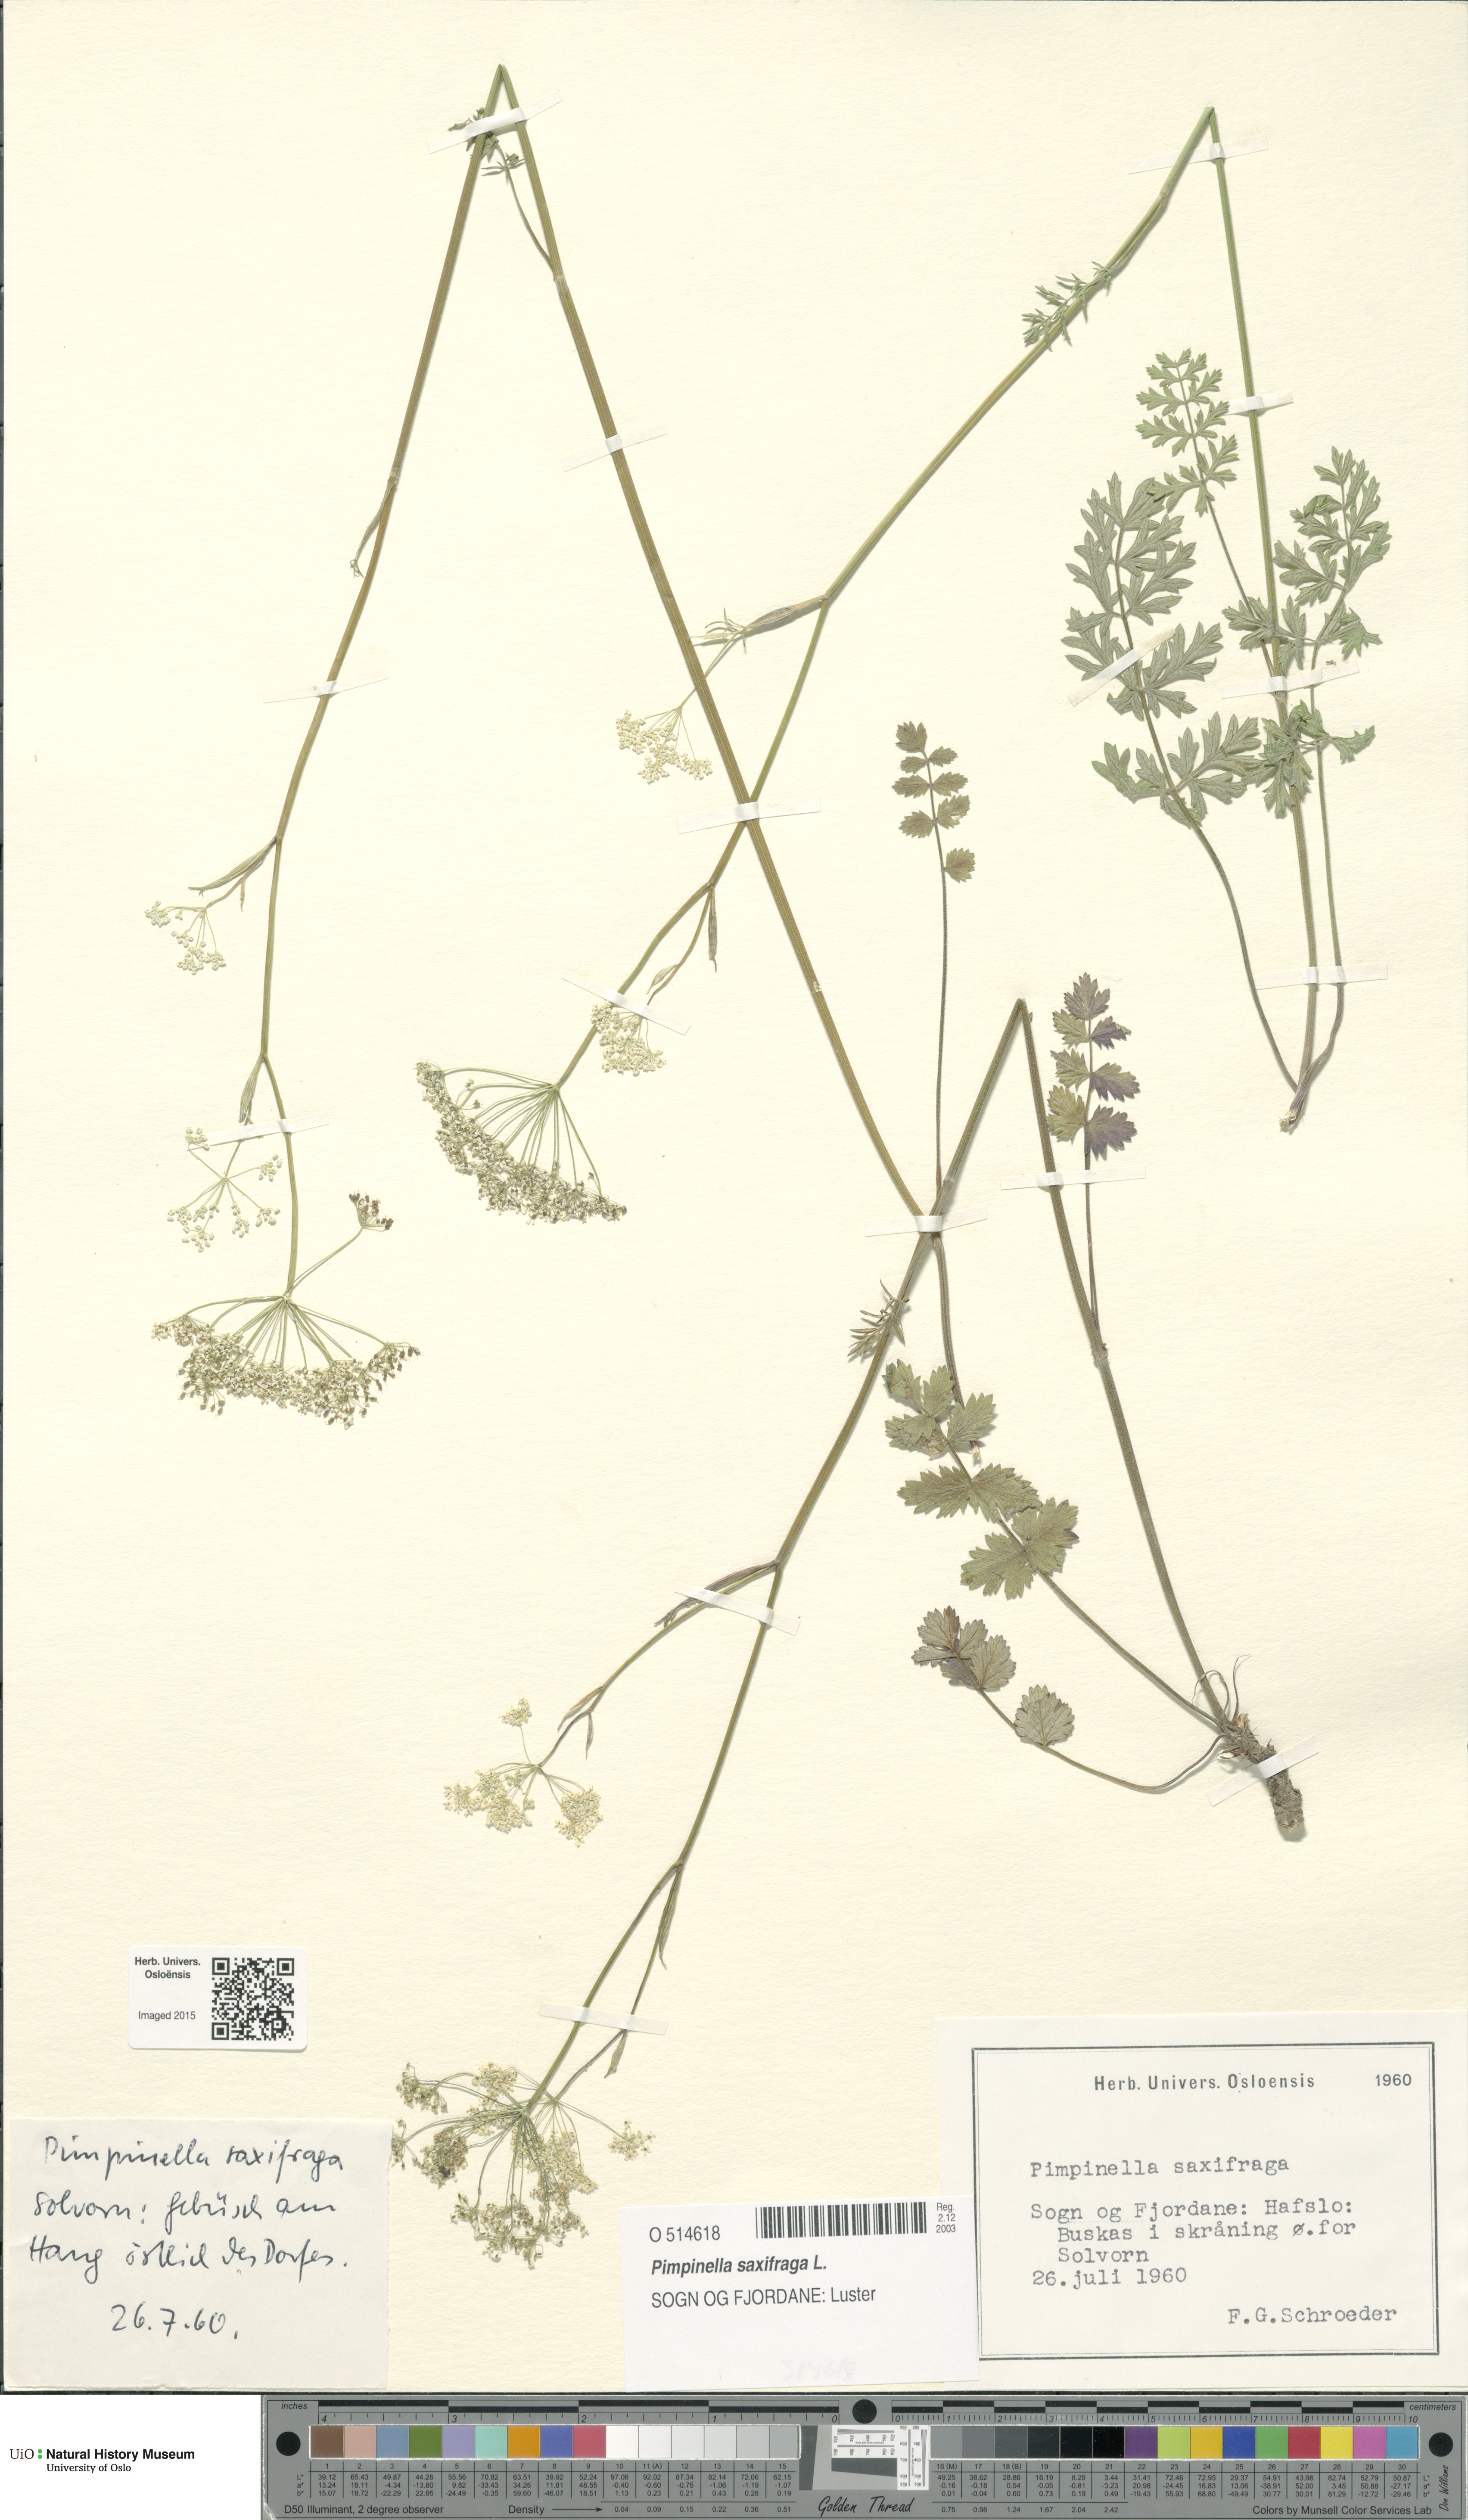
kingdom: Plantae
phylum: Tracheophyta
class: Magnoliopsida
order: Apiales
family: Apiaceae
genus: Pimpinella
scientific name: Pimpinella saxifraga
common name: Burnet-saxifrage
